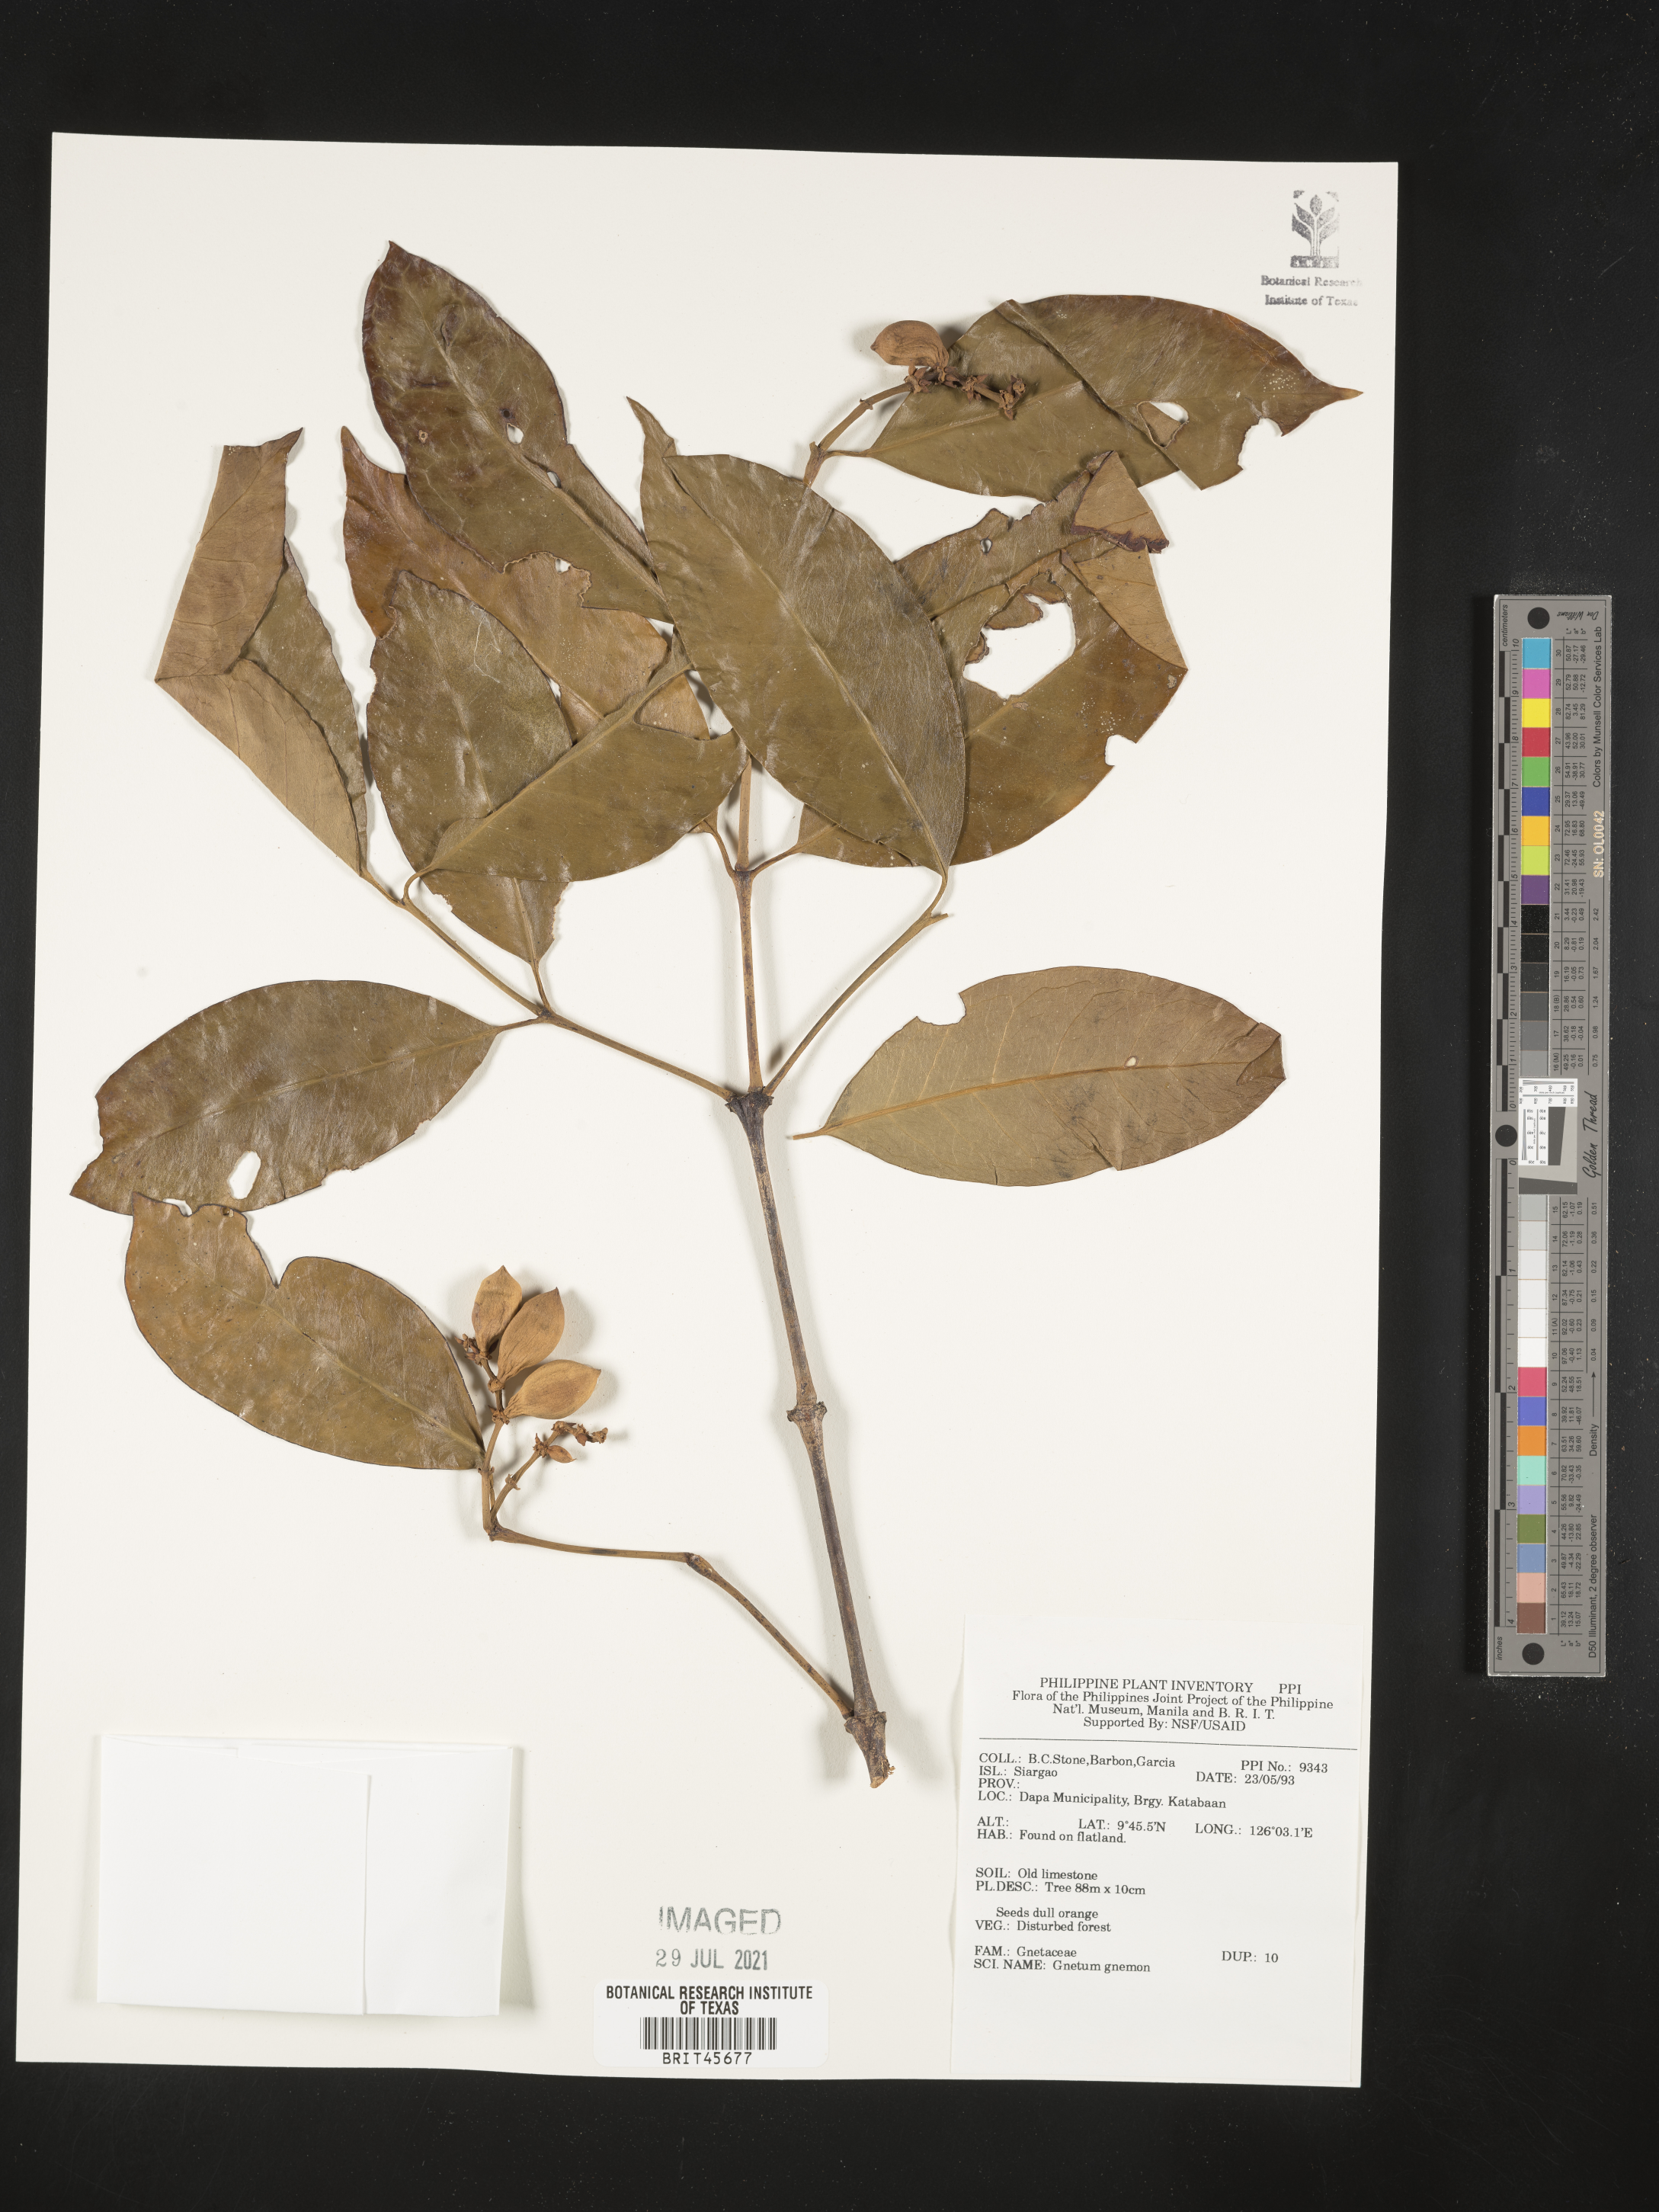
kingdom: Plantae
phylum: Tracheophyta
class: Gnetopsida
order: Gnetales
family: Gnetaceae
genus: Gnetum
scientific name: Gnetum gnemon
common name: Spanish joint-fir
